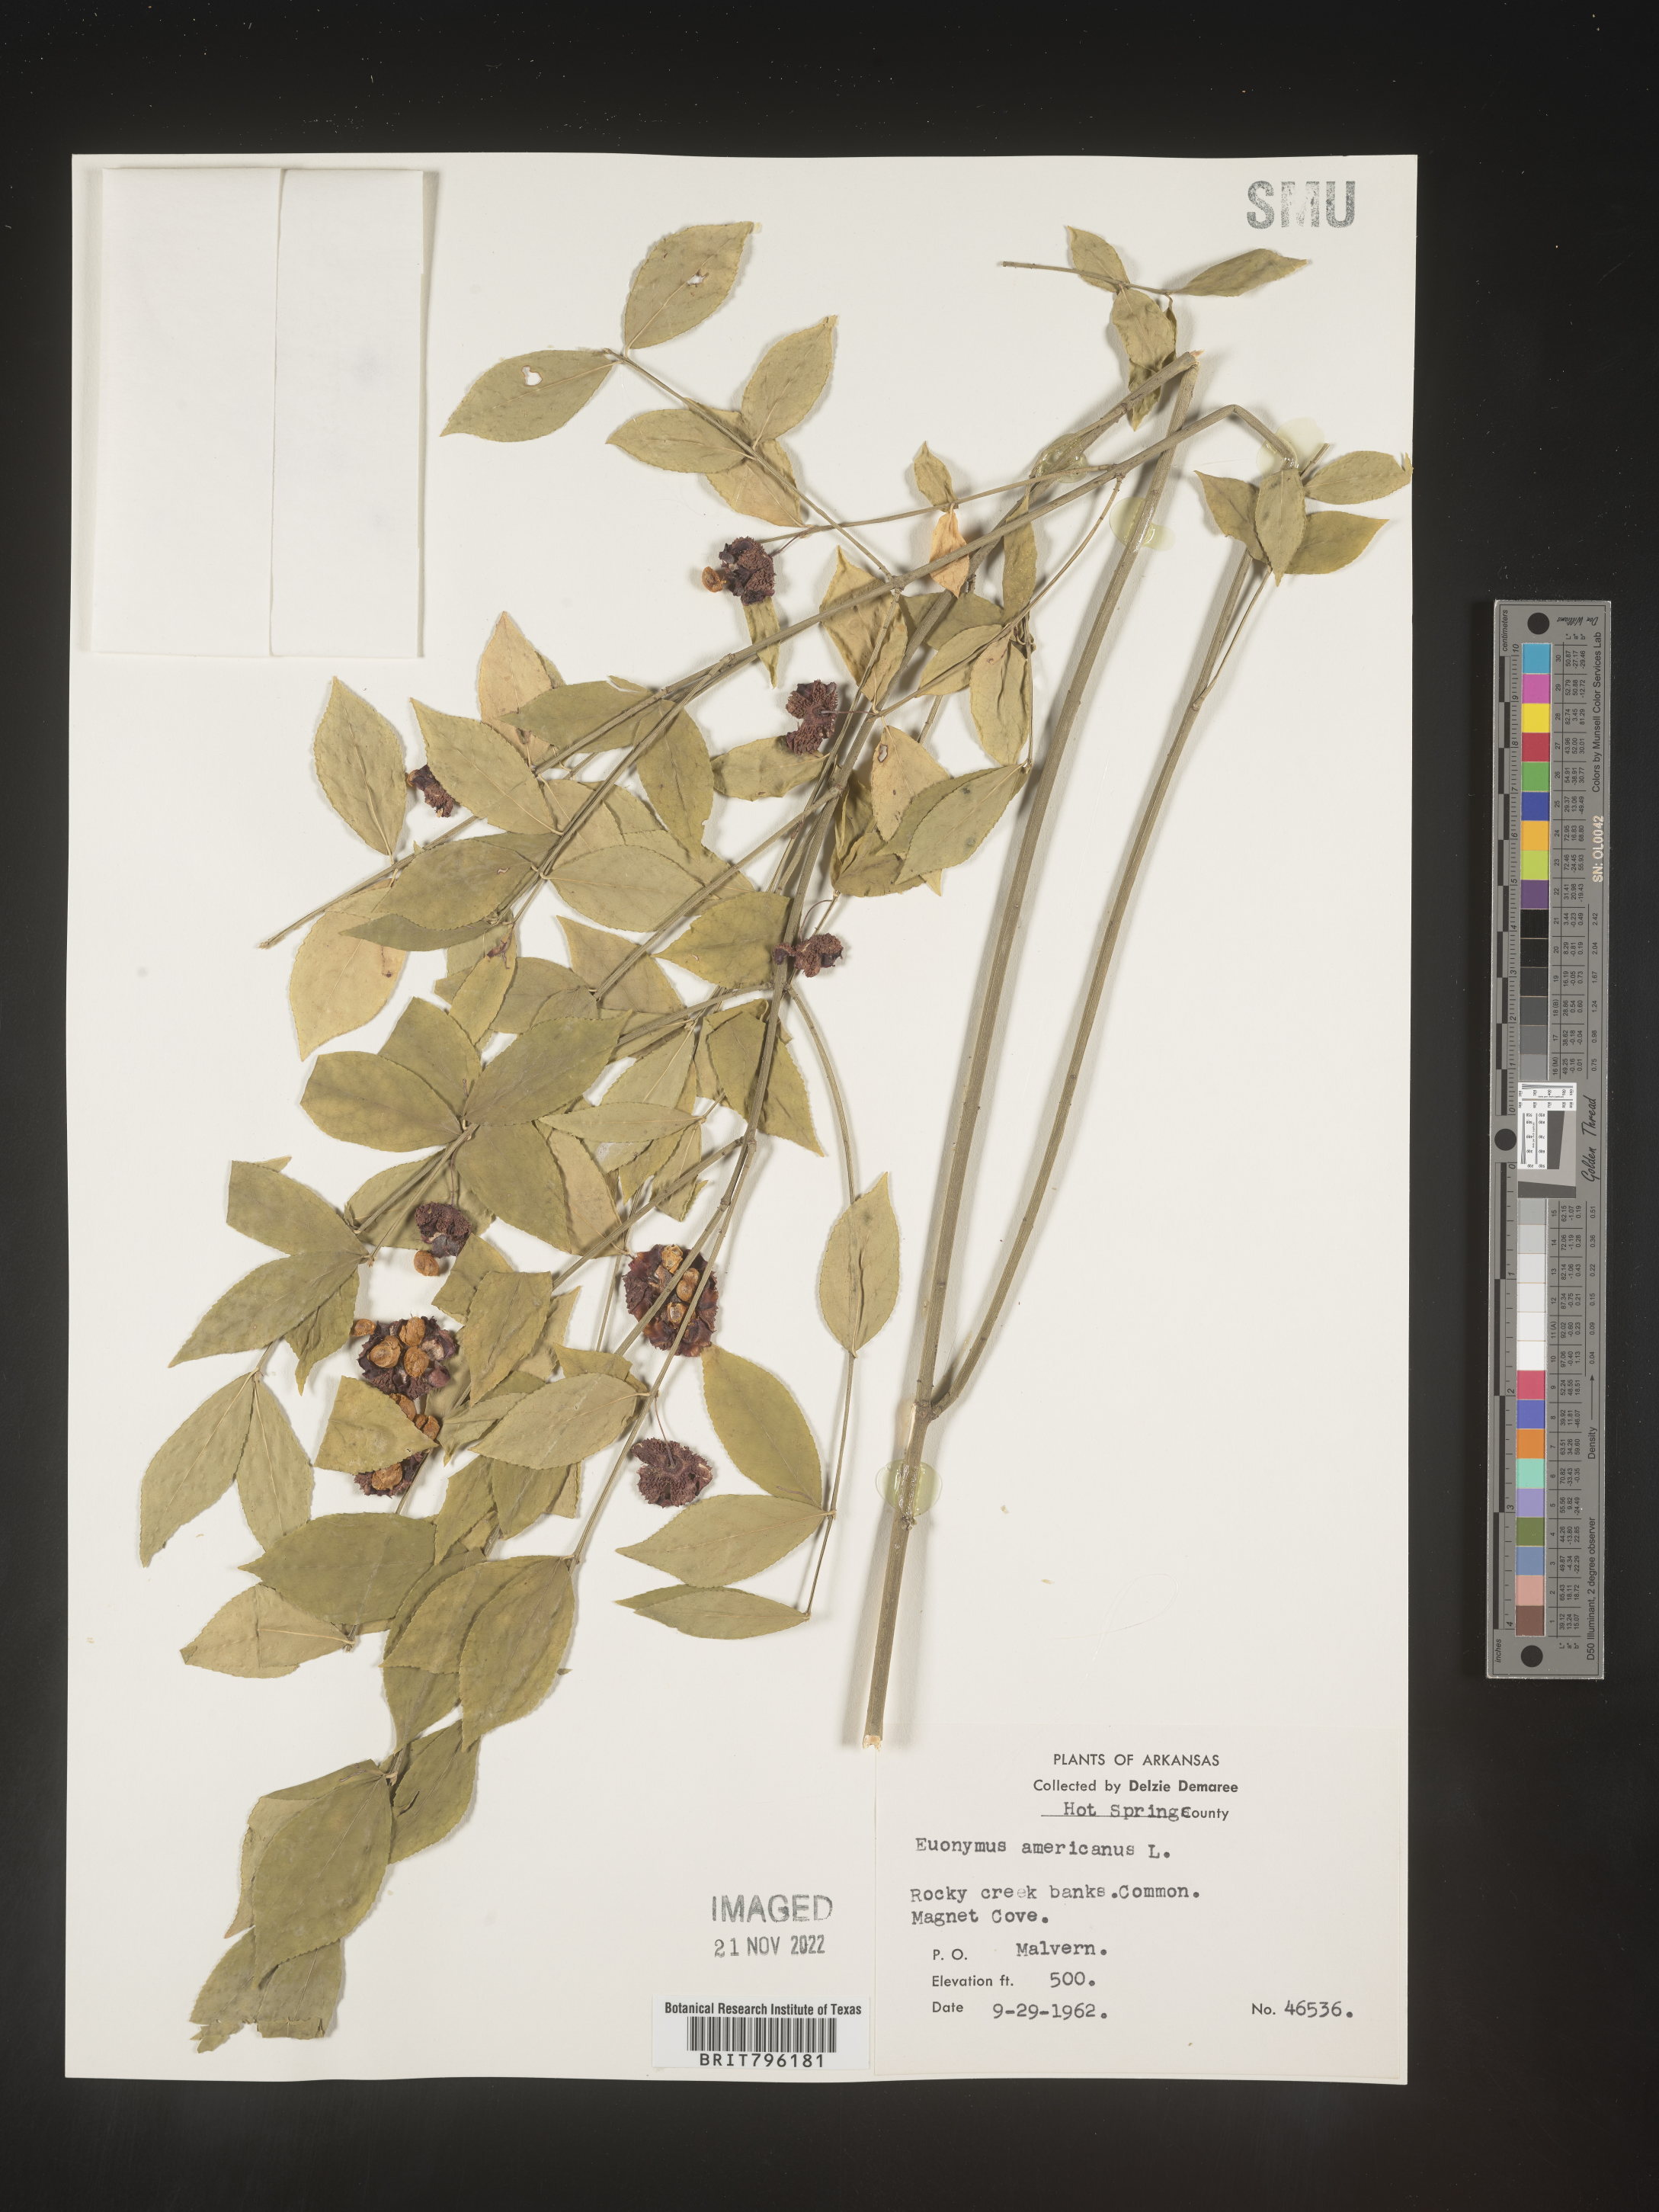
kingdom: Plantae
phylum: Tracheophyta
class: Magnoliopsida
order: Celastrales
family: Celastraceae
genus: Euonymus
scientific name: Euonymus americanus
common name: Bursting-heart
